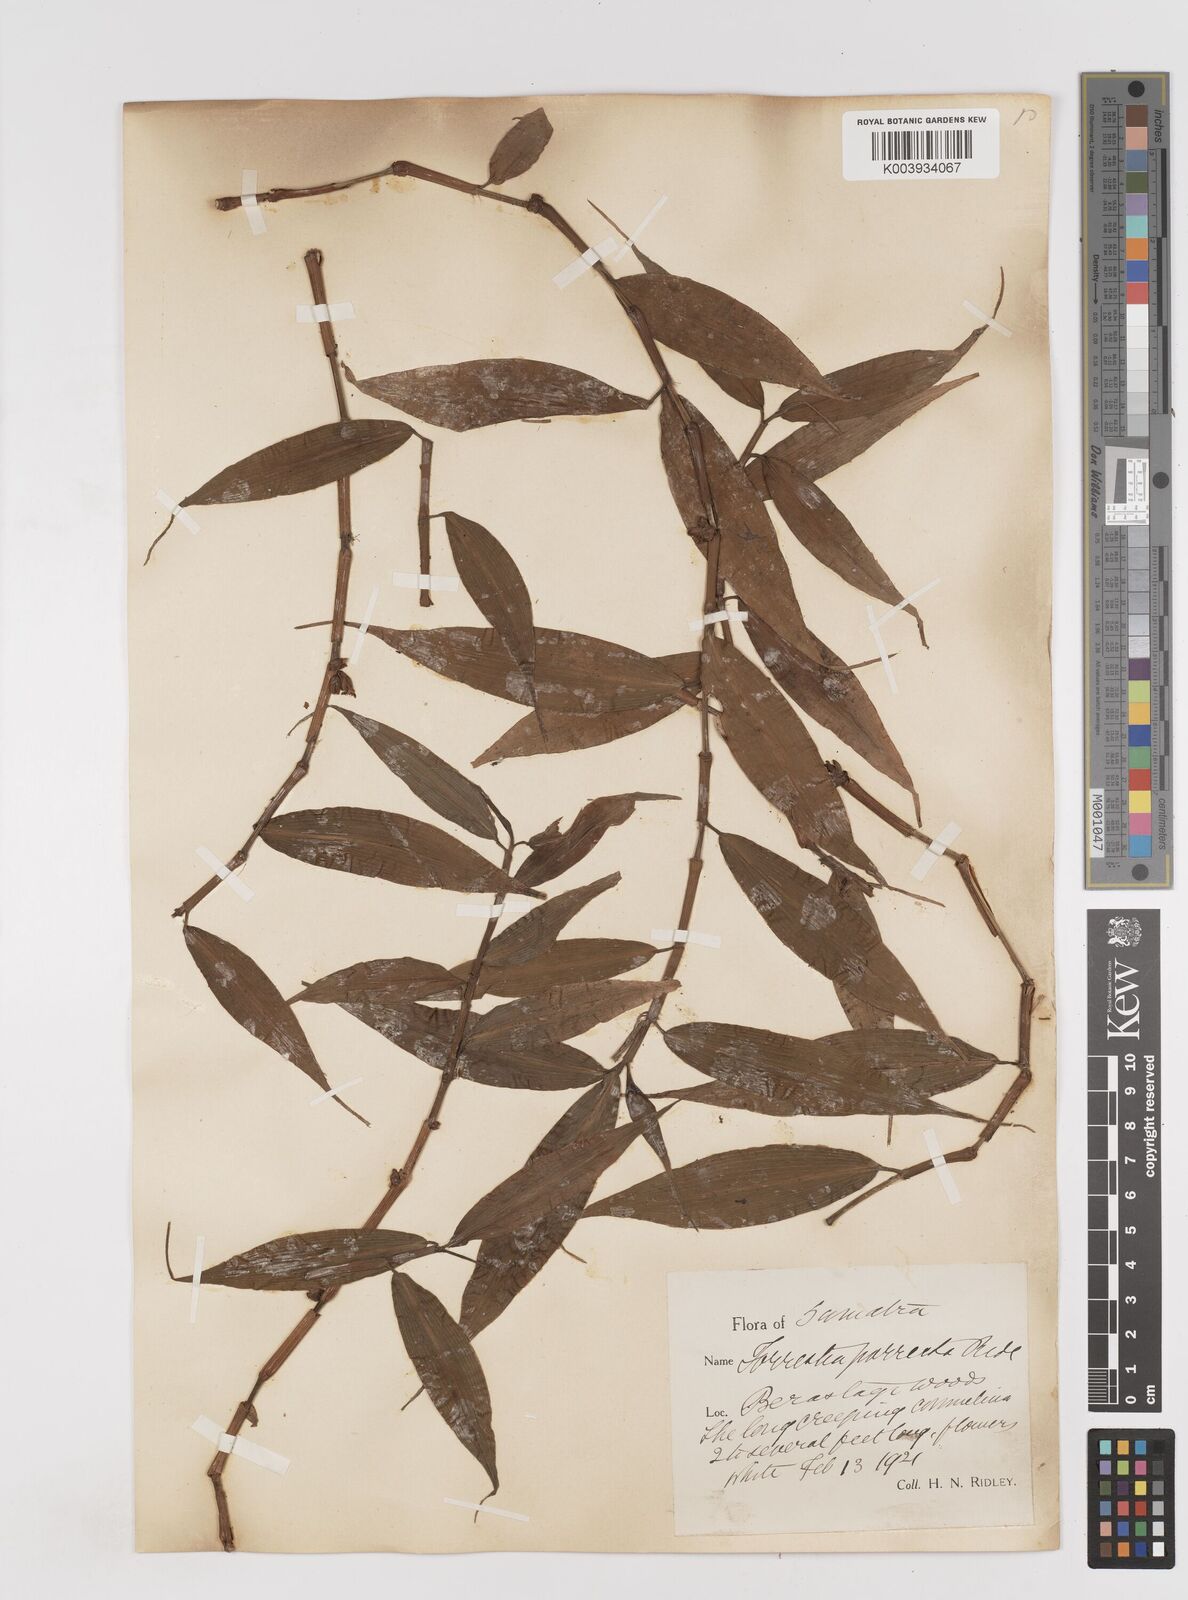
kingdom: Plantae
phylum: Tracheophyta
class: Liliopsida
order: Commelinales
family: Commelinaceae
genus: Amischotolype
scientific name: Amischotolype
